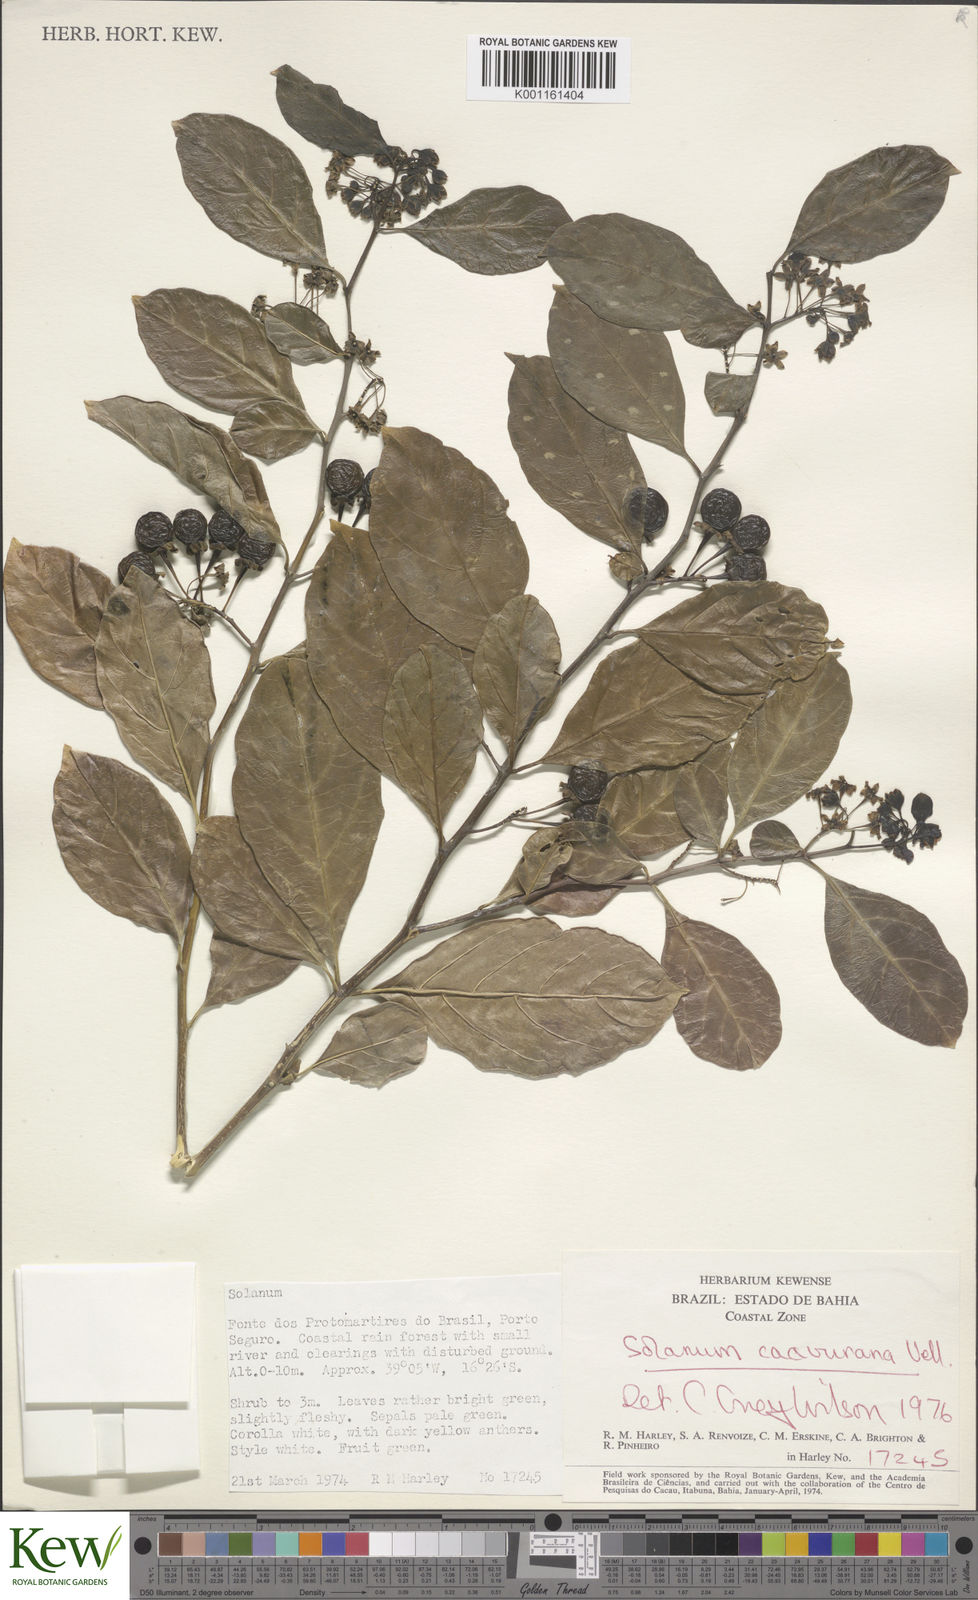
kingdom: Plantae
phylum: Tracheophyta
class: Magnoliopsida
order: Solanales
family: Solanaceae
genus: Solanum
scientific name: Solanum caavurana
